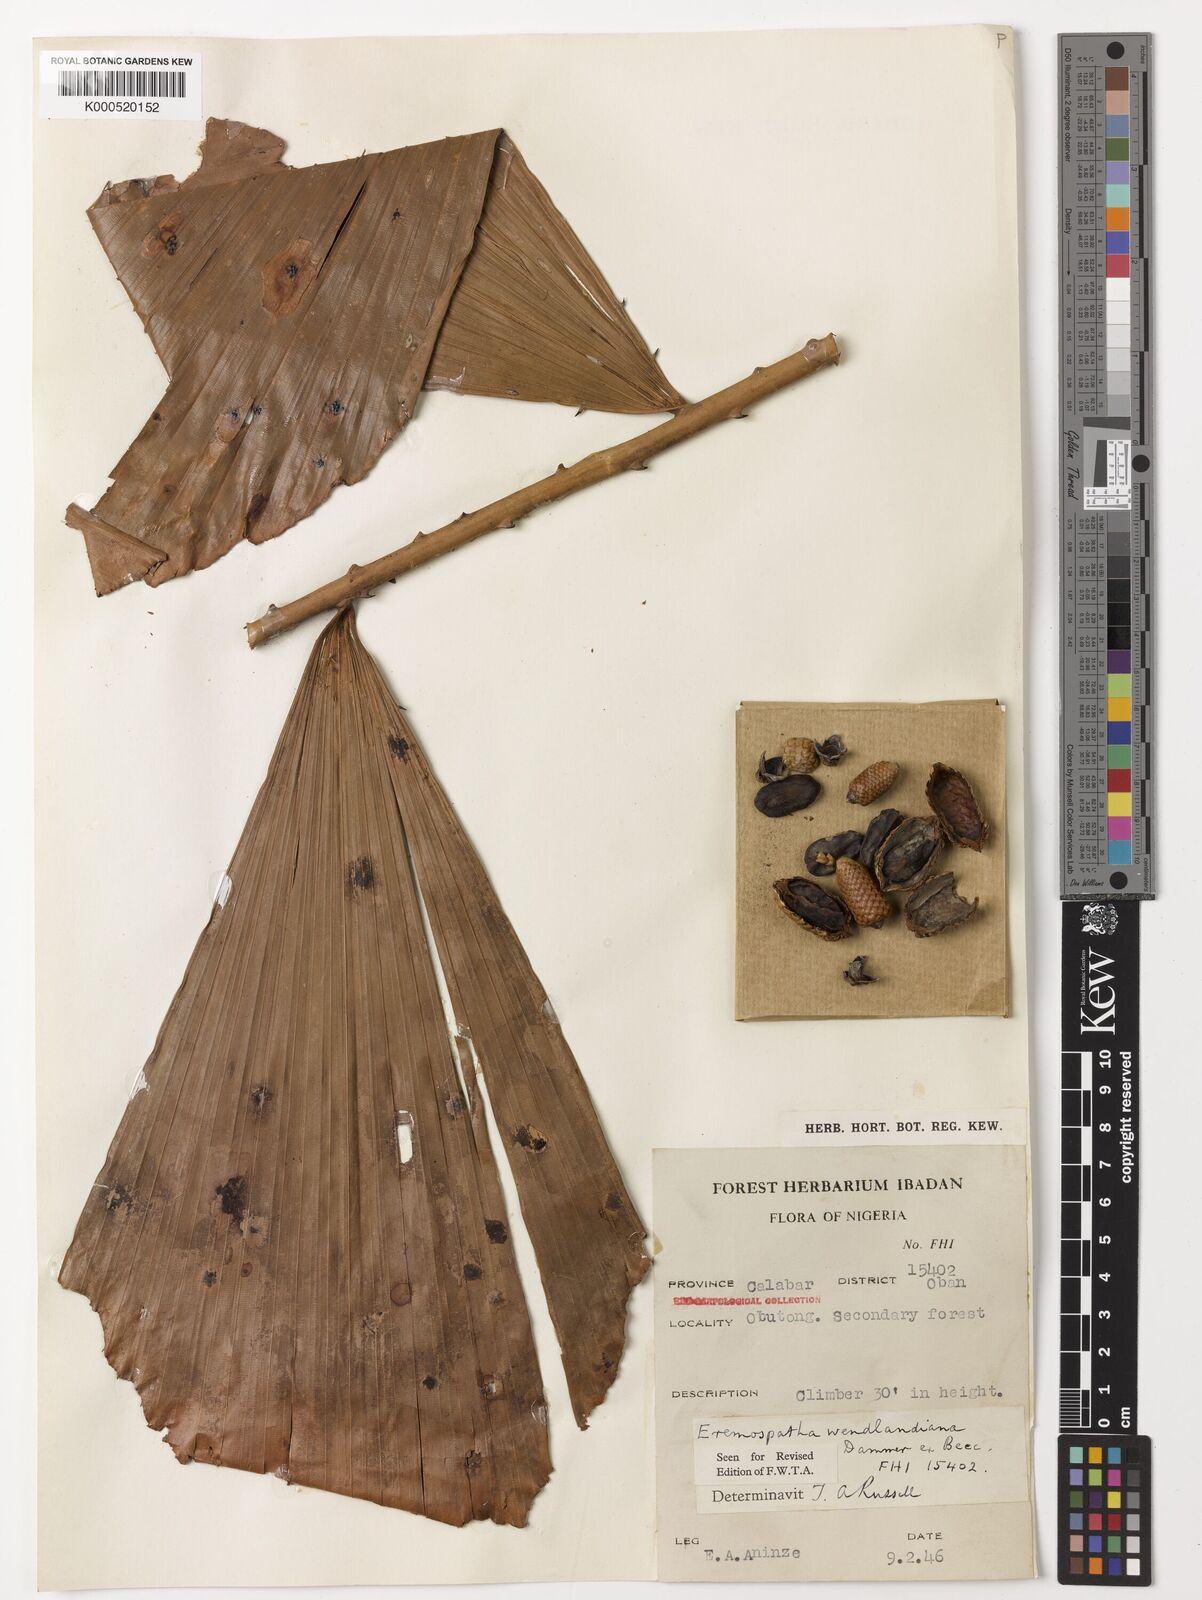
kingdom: Plantae
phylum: Tracheophyta
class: Liliopsida
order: Arecales
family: Arecaceae
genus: Eremospatha
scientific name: Eremospatha wendlandiana
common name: Rattan
